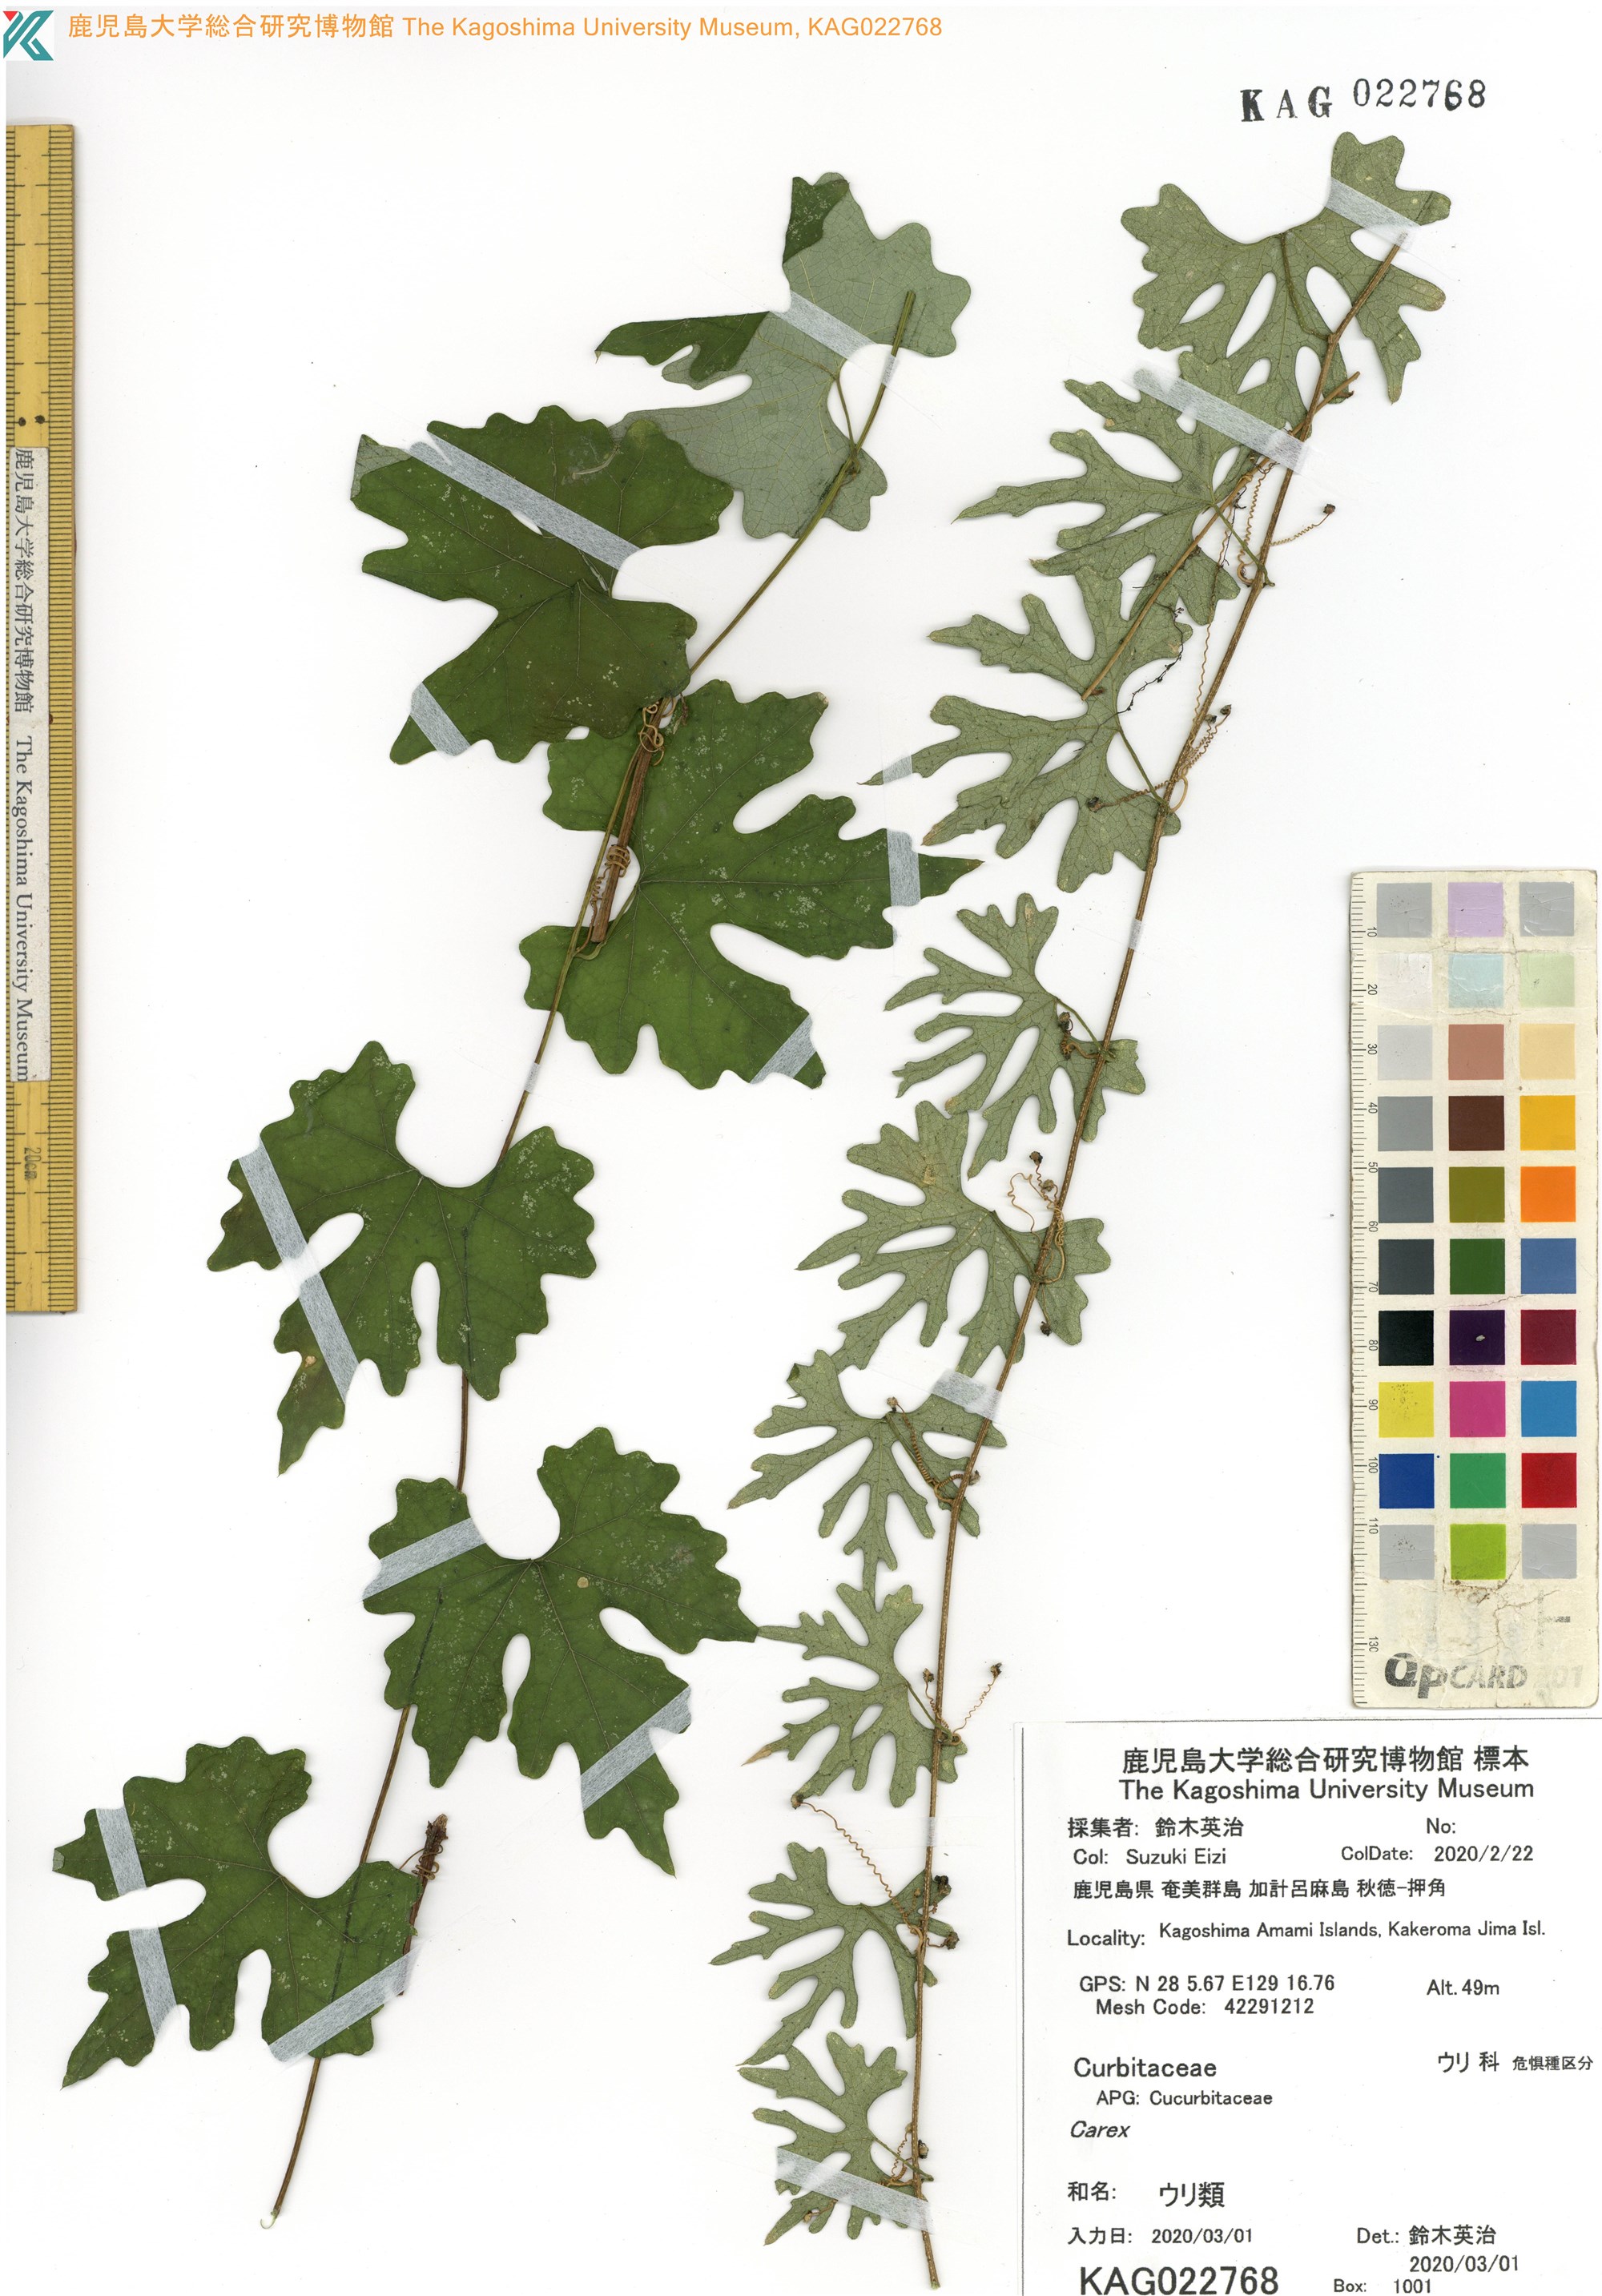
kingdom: Plantae
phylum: Tracheophyta
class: Magnoliopsida
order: Cucurbitales
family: Cucurbitaceae
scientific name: Cucurbitaceae
